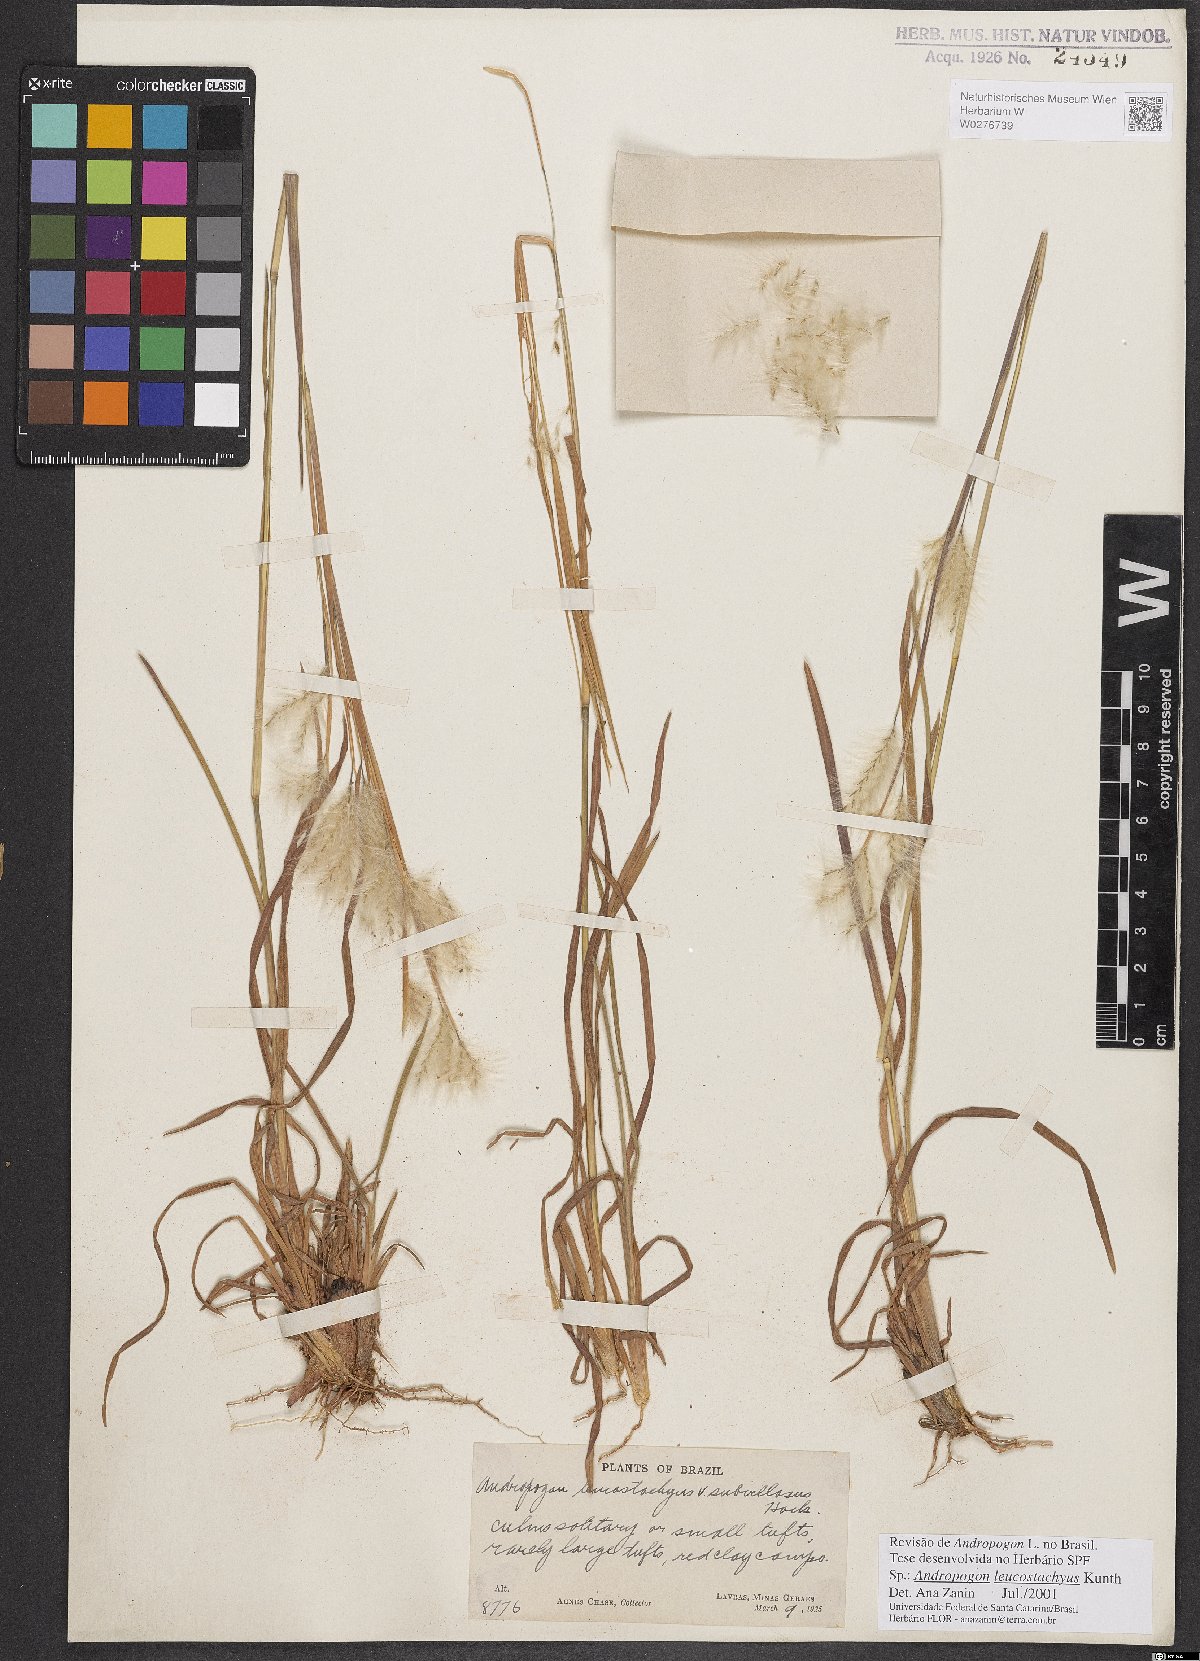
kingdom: Plantae
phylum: Tracheophyta
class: Liliopsida
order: Poales
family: Poaceae
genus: Andropogon
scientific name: Andropogon leucostachyus
